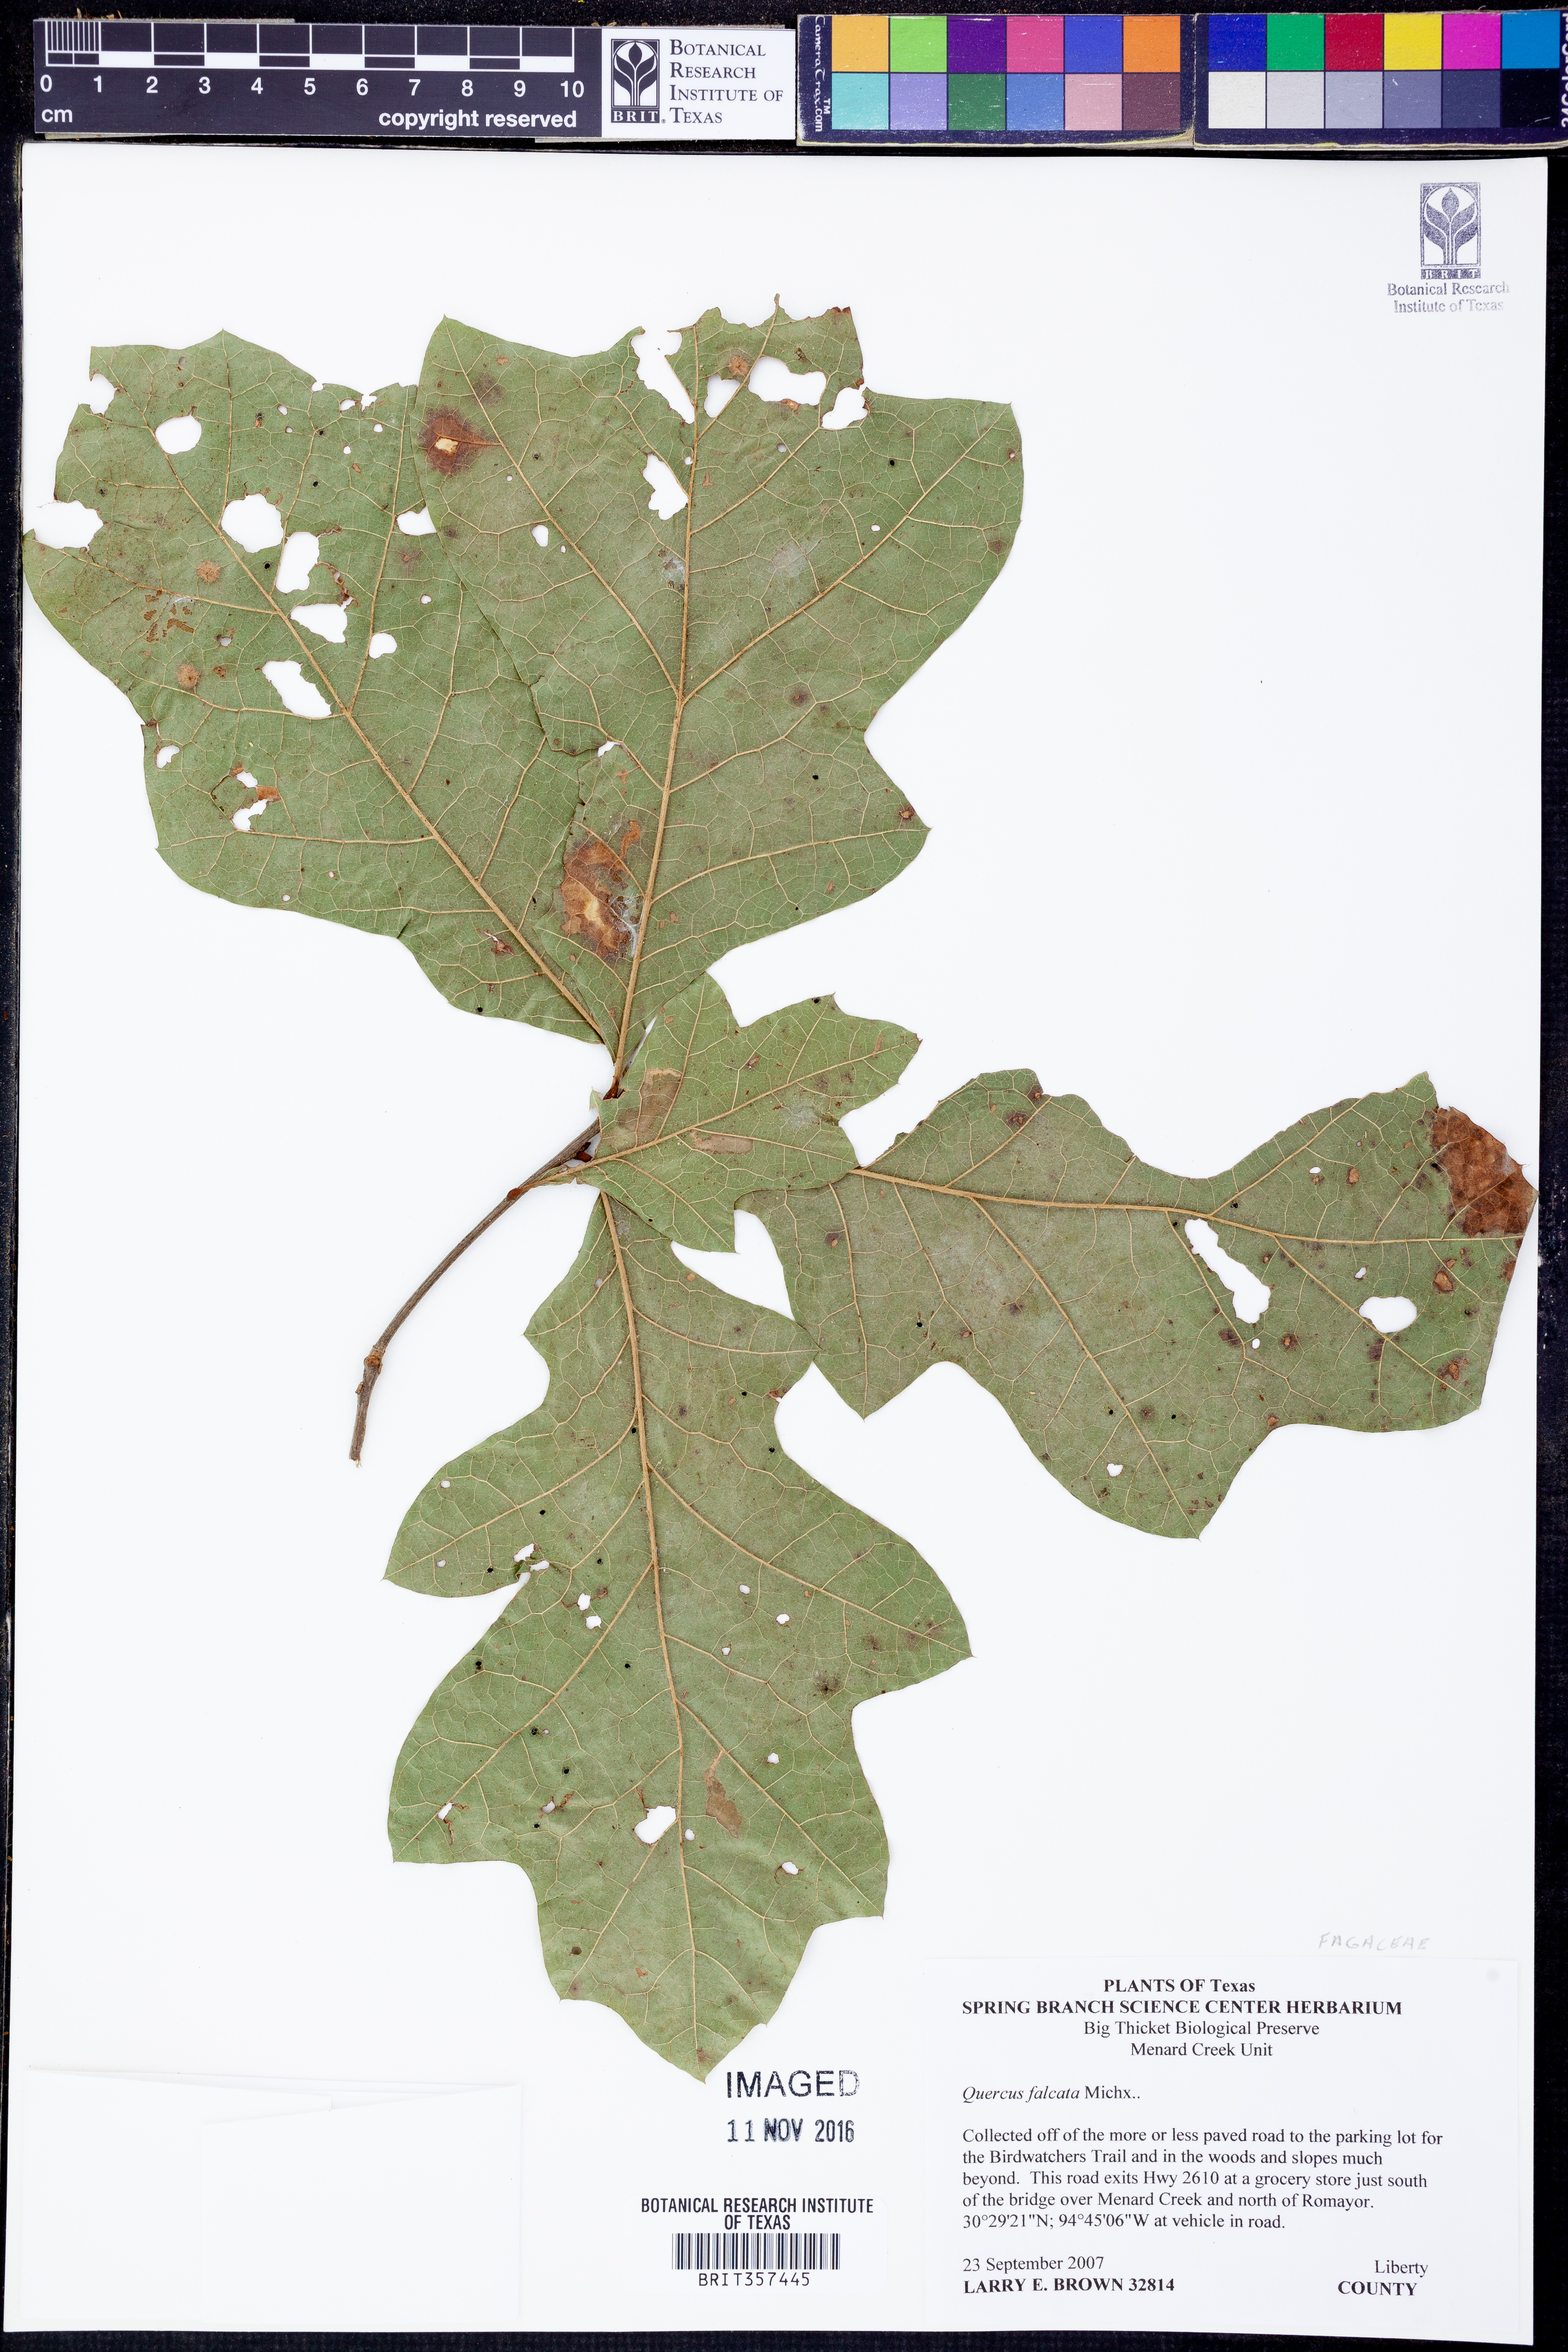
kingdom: Plantae
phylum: Tracheophyta
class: Magnoliopsida
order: Fagales
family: Fagaceae
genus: Quercus
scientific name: Quercus falcata
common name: Southern red oak
